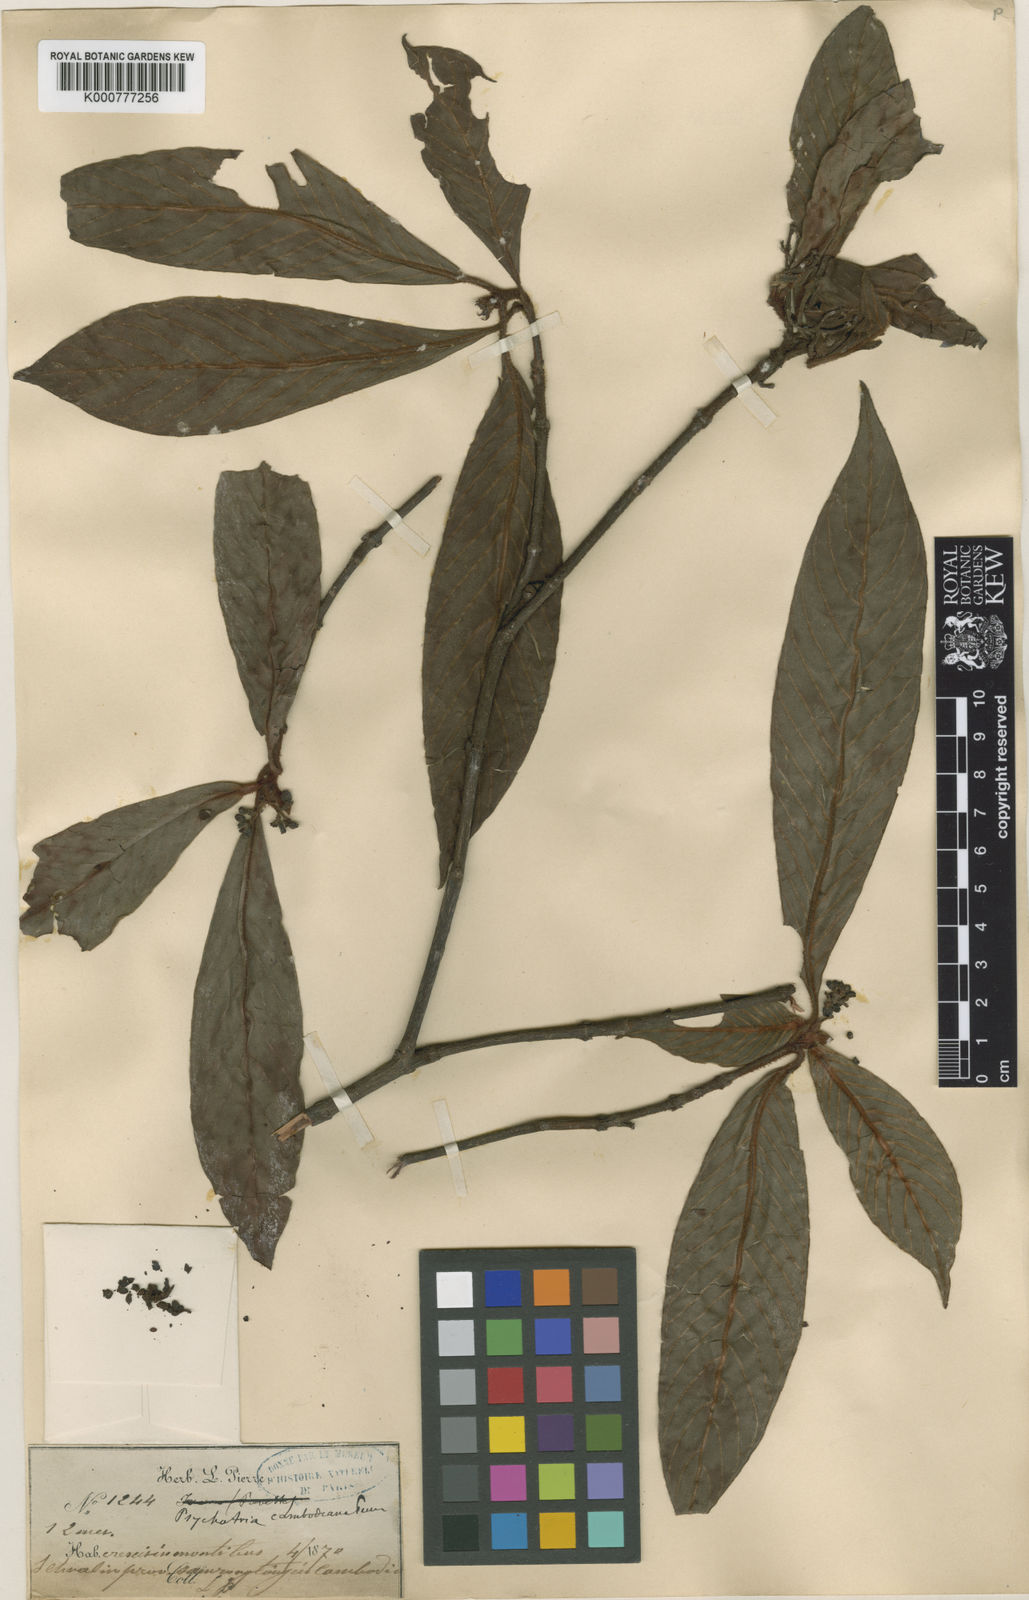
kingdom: Plantae
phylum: Tracheophyta
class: Magnoliopsida
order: Gentianales
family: Rubiaceae
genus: Psychotria
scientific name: Psychotria cambodiana
